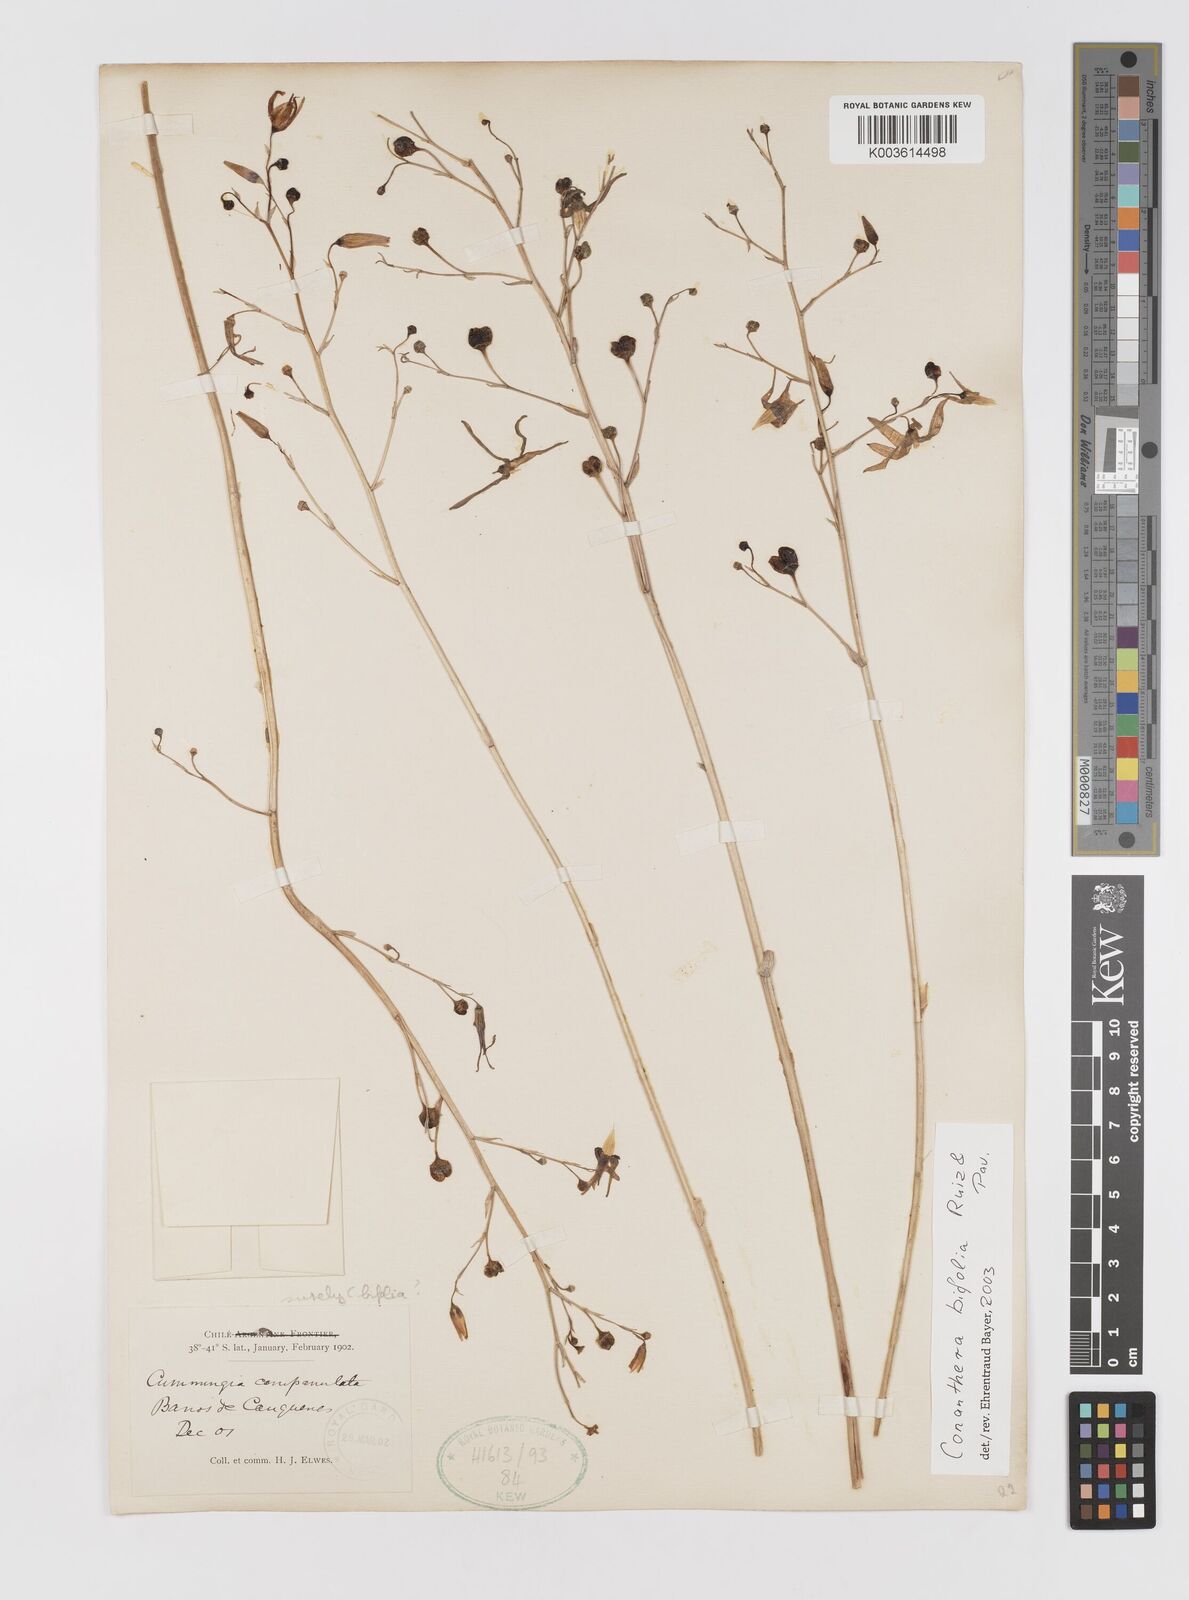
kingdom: Plantae
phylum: Tracheophyta
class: Liliopsida
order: Asparagales
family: Tecophilaeaceae
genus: Conanthera
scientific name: Conanthera bifolia
